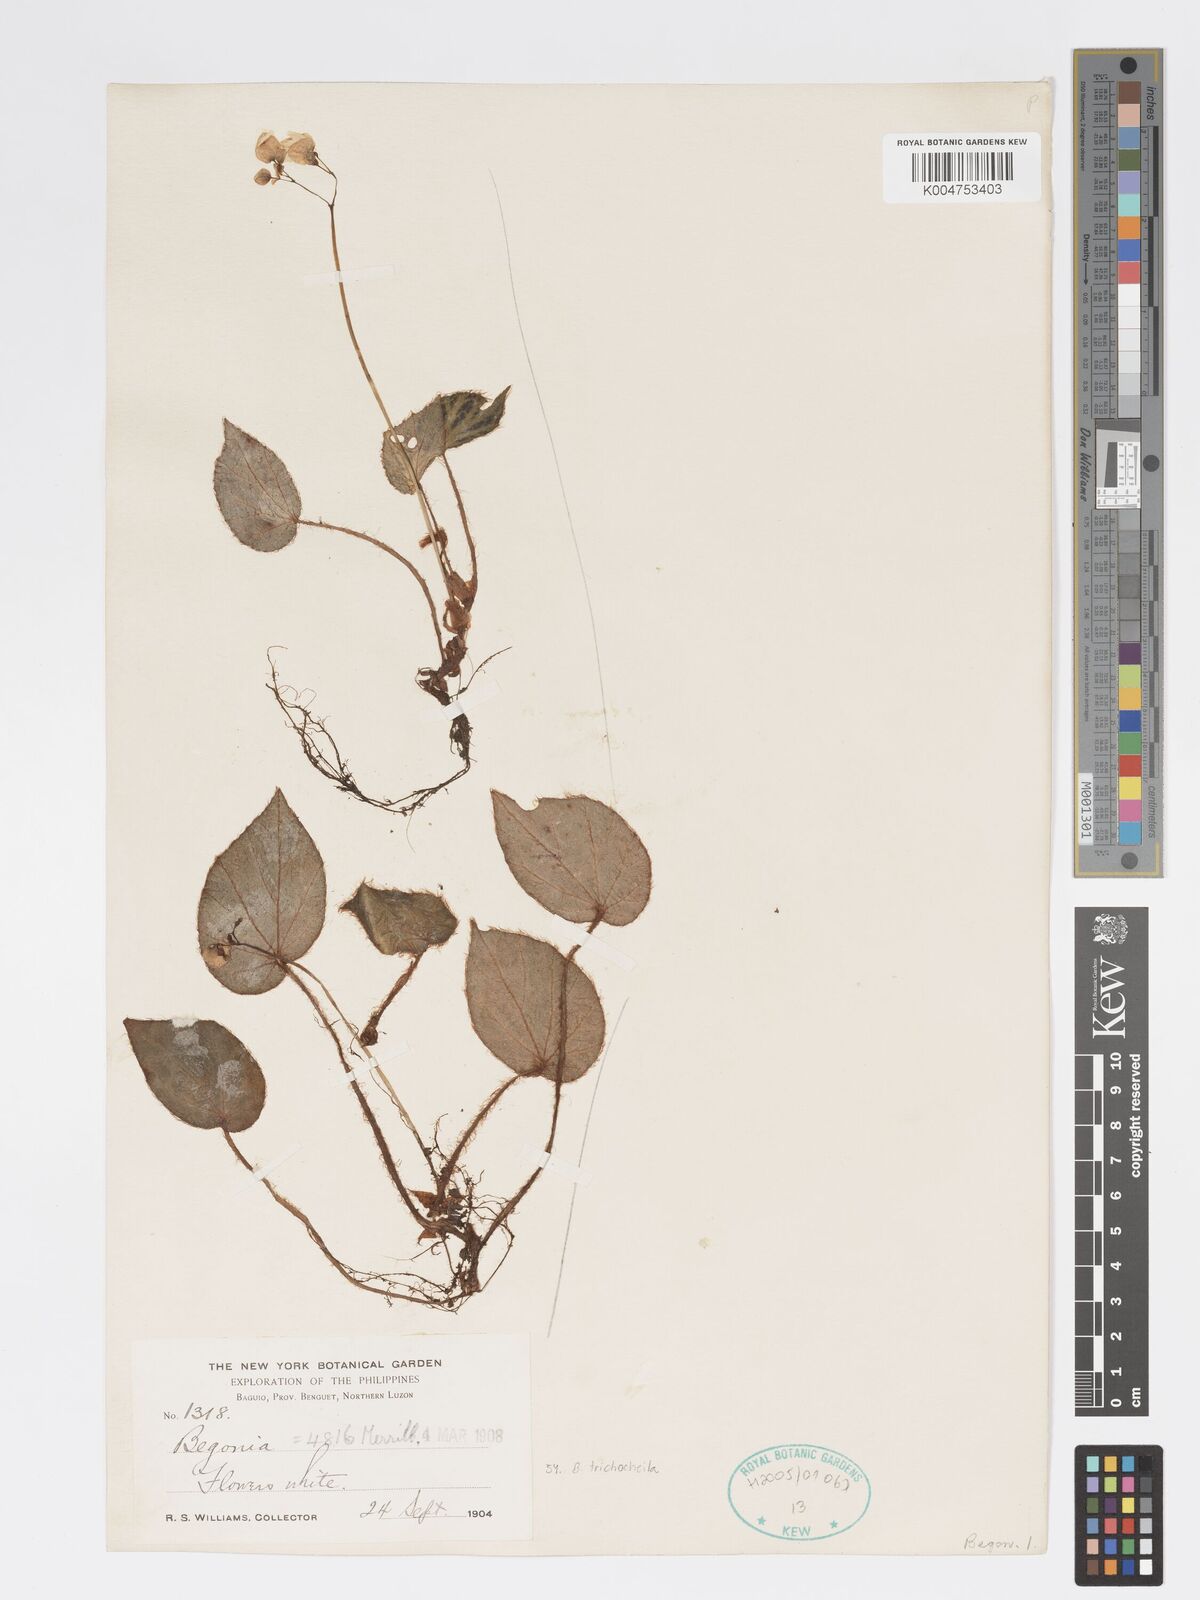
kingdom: Plantae
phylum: Tracheophyta
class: Magnoliopsida
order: Cucurbitales
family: Begoniaceae
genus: Begonia
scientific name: Begonia trichochila
